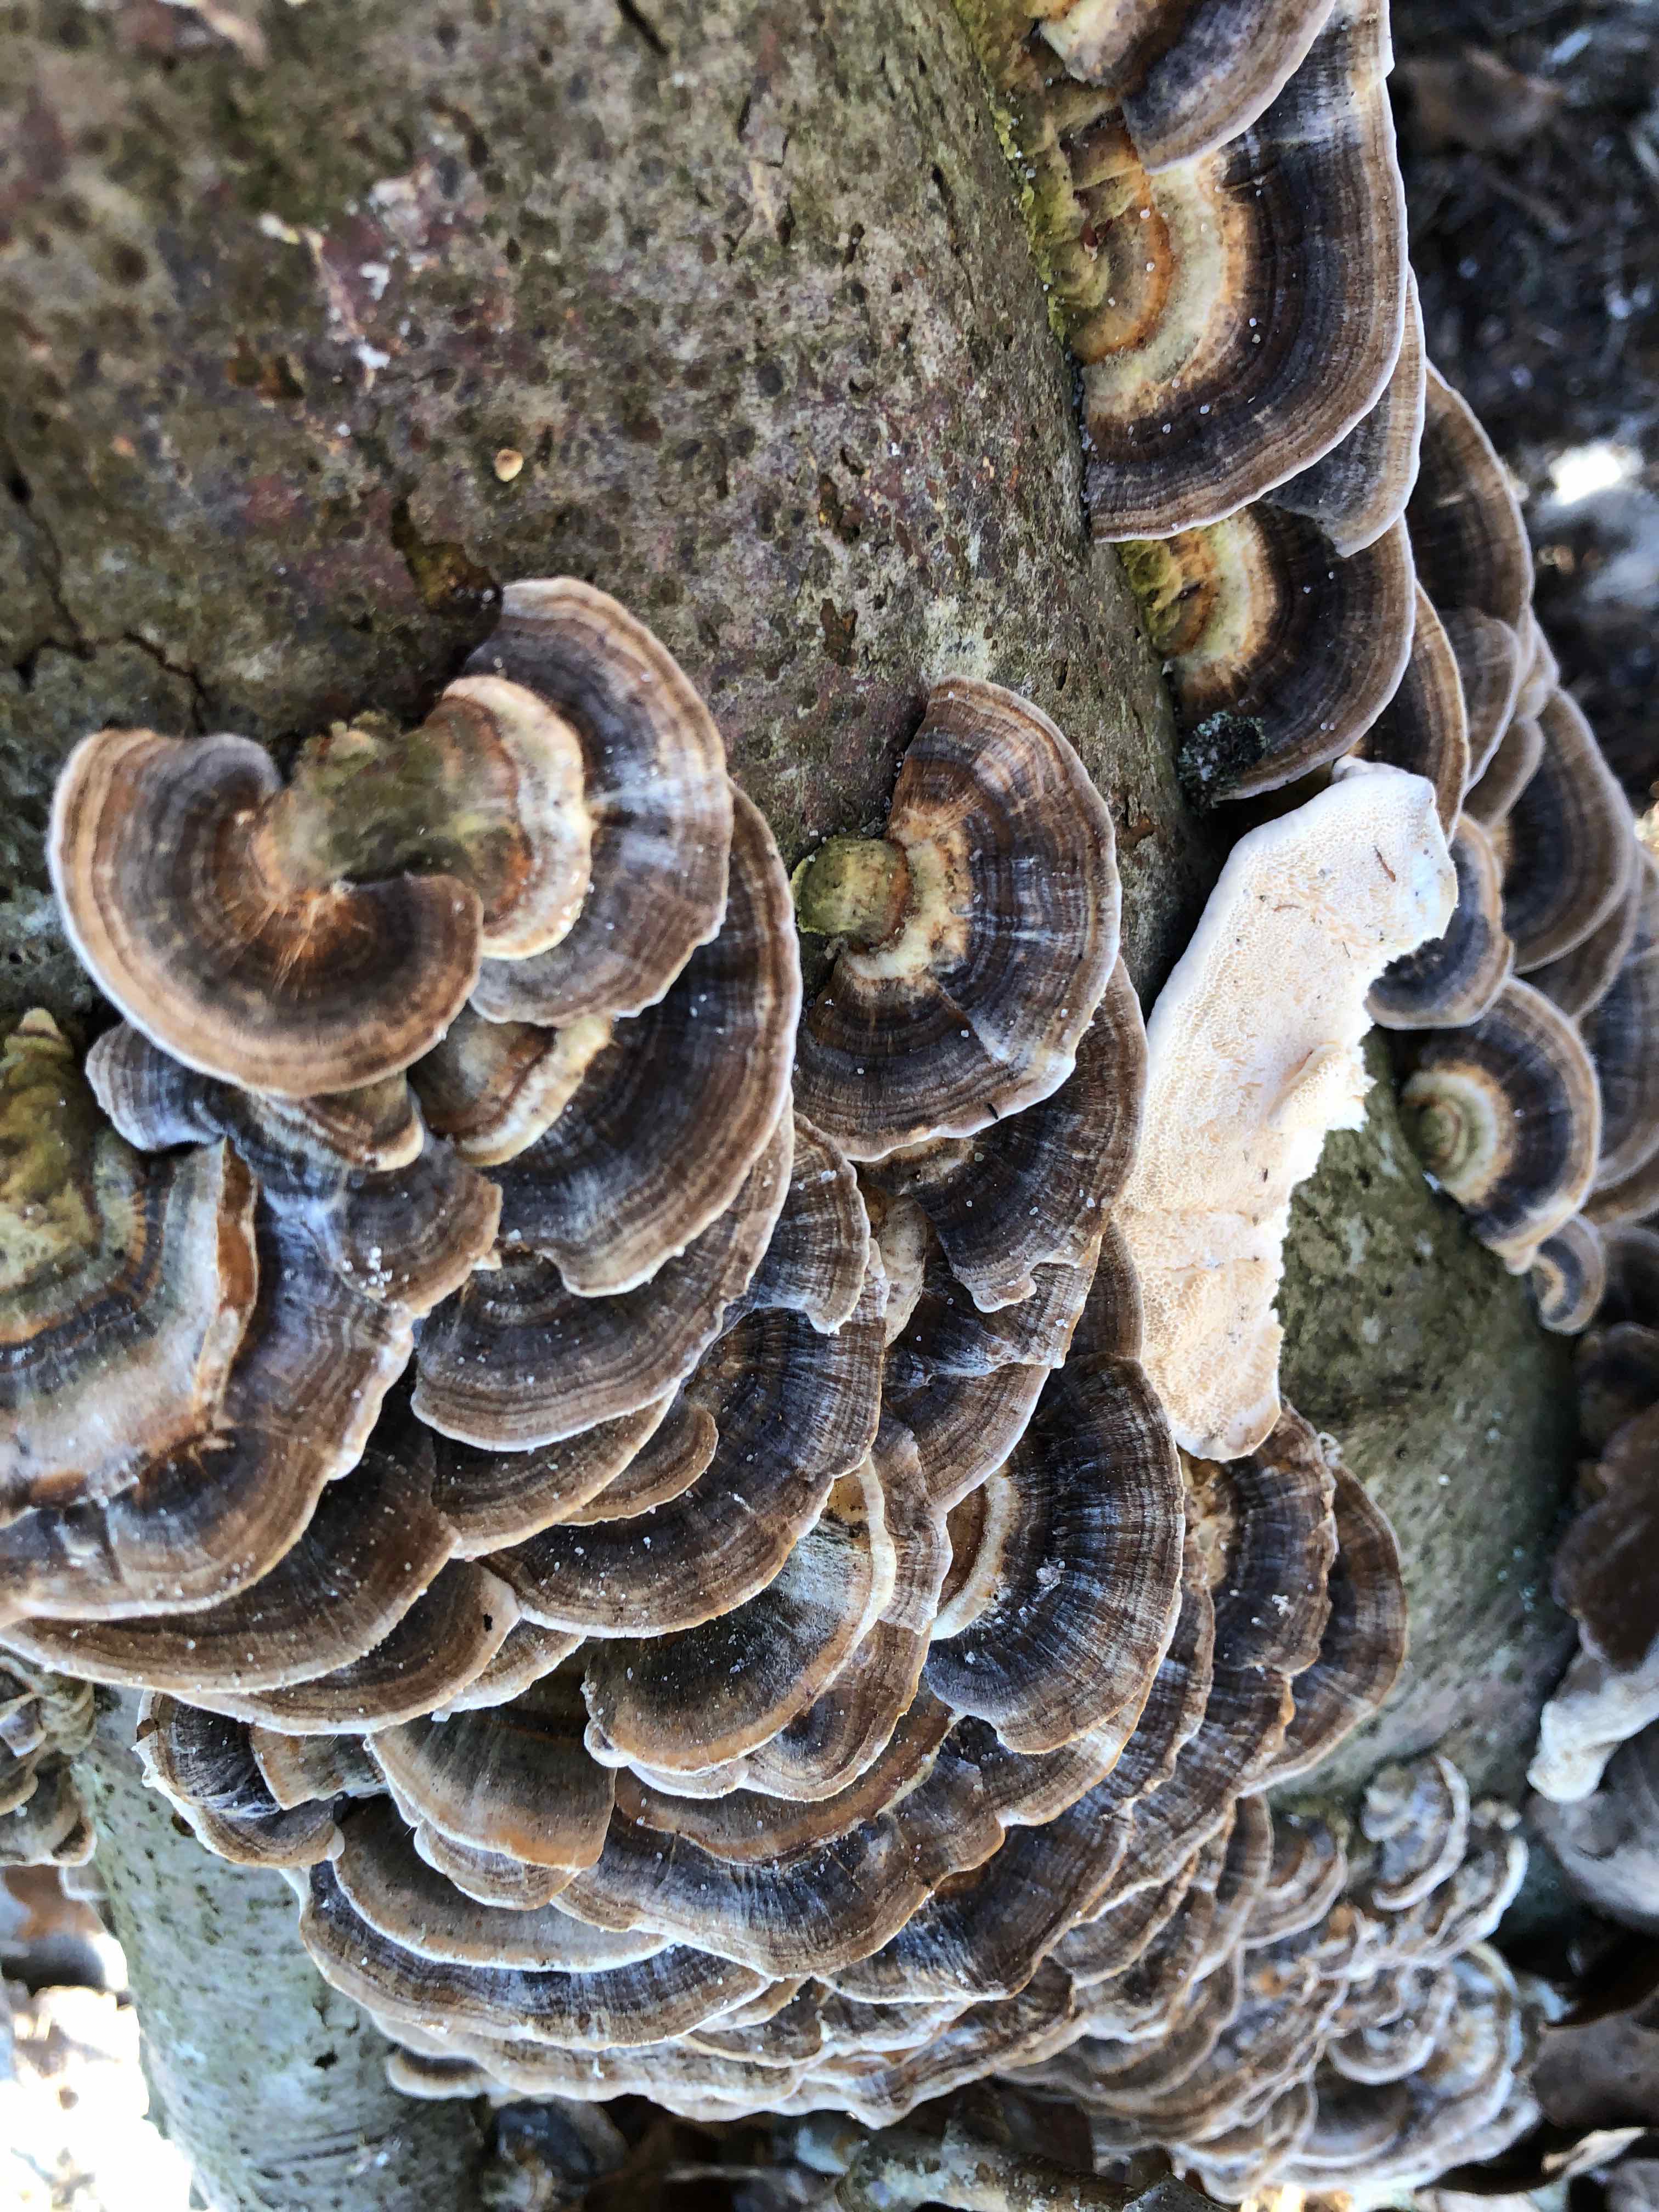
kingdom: Fungi
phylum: Basidiomycota
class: Agaricomycetes
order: Polyporales
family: Polyporaceae
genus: Trametes
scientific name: Trametes versicolor
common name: broget læderporesvamp
